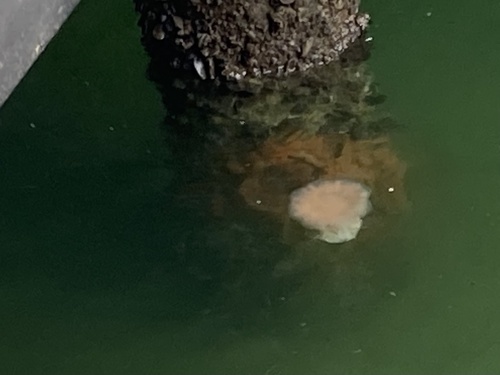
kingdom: Animalia
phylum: Cnidaria
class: Scyphozoa
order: Semaeostomeae
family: Cyaneidae
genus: Cyanea
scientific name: Cyanea nozakii
